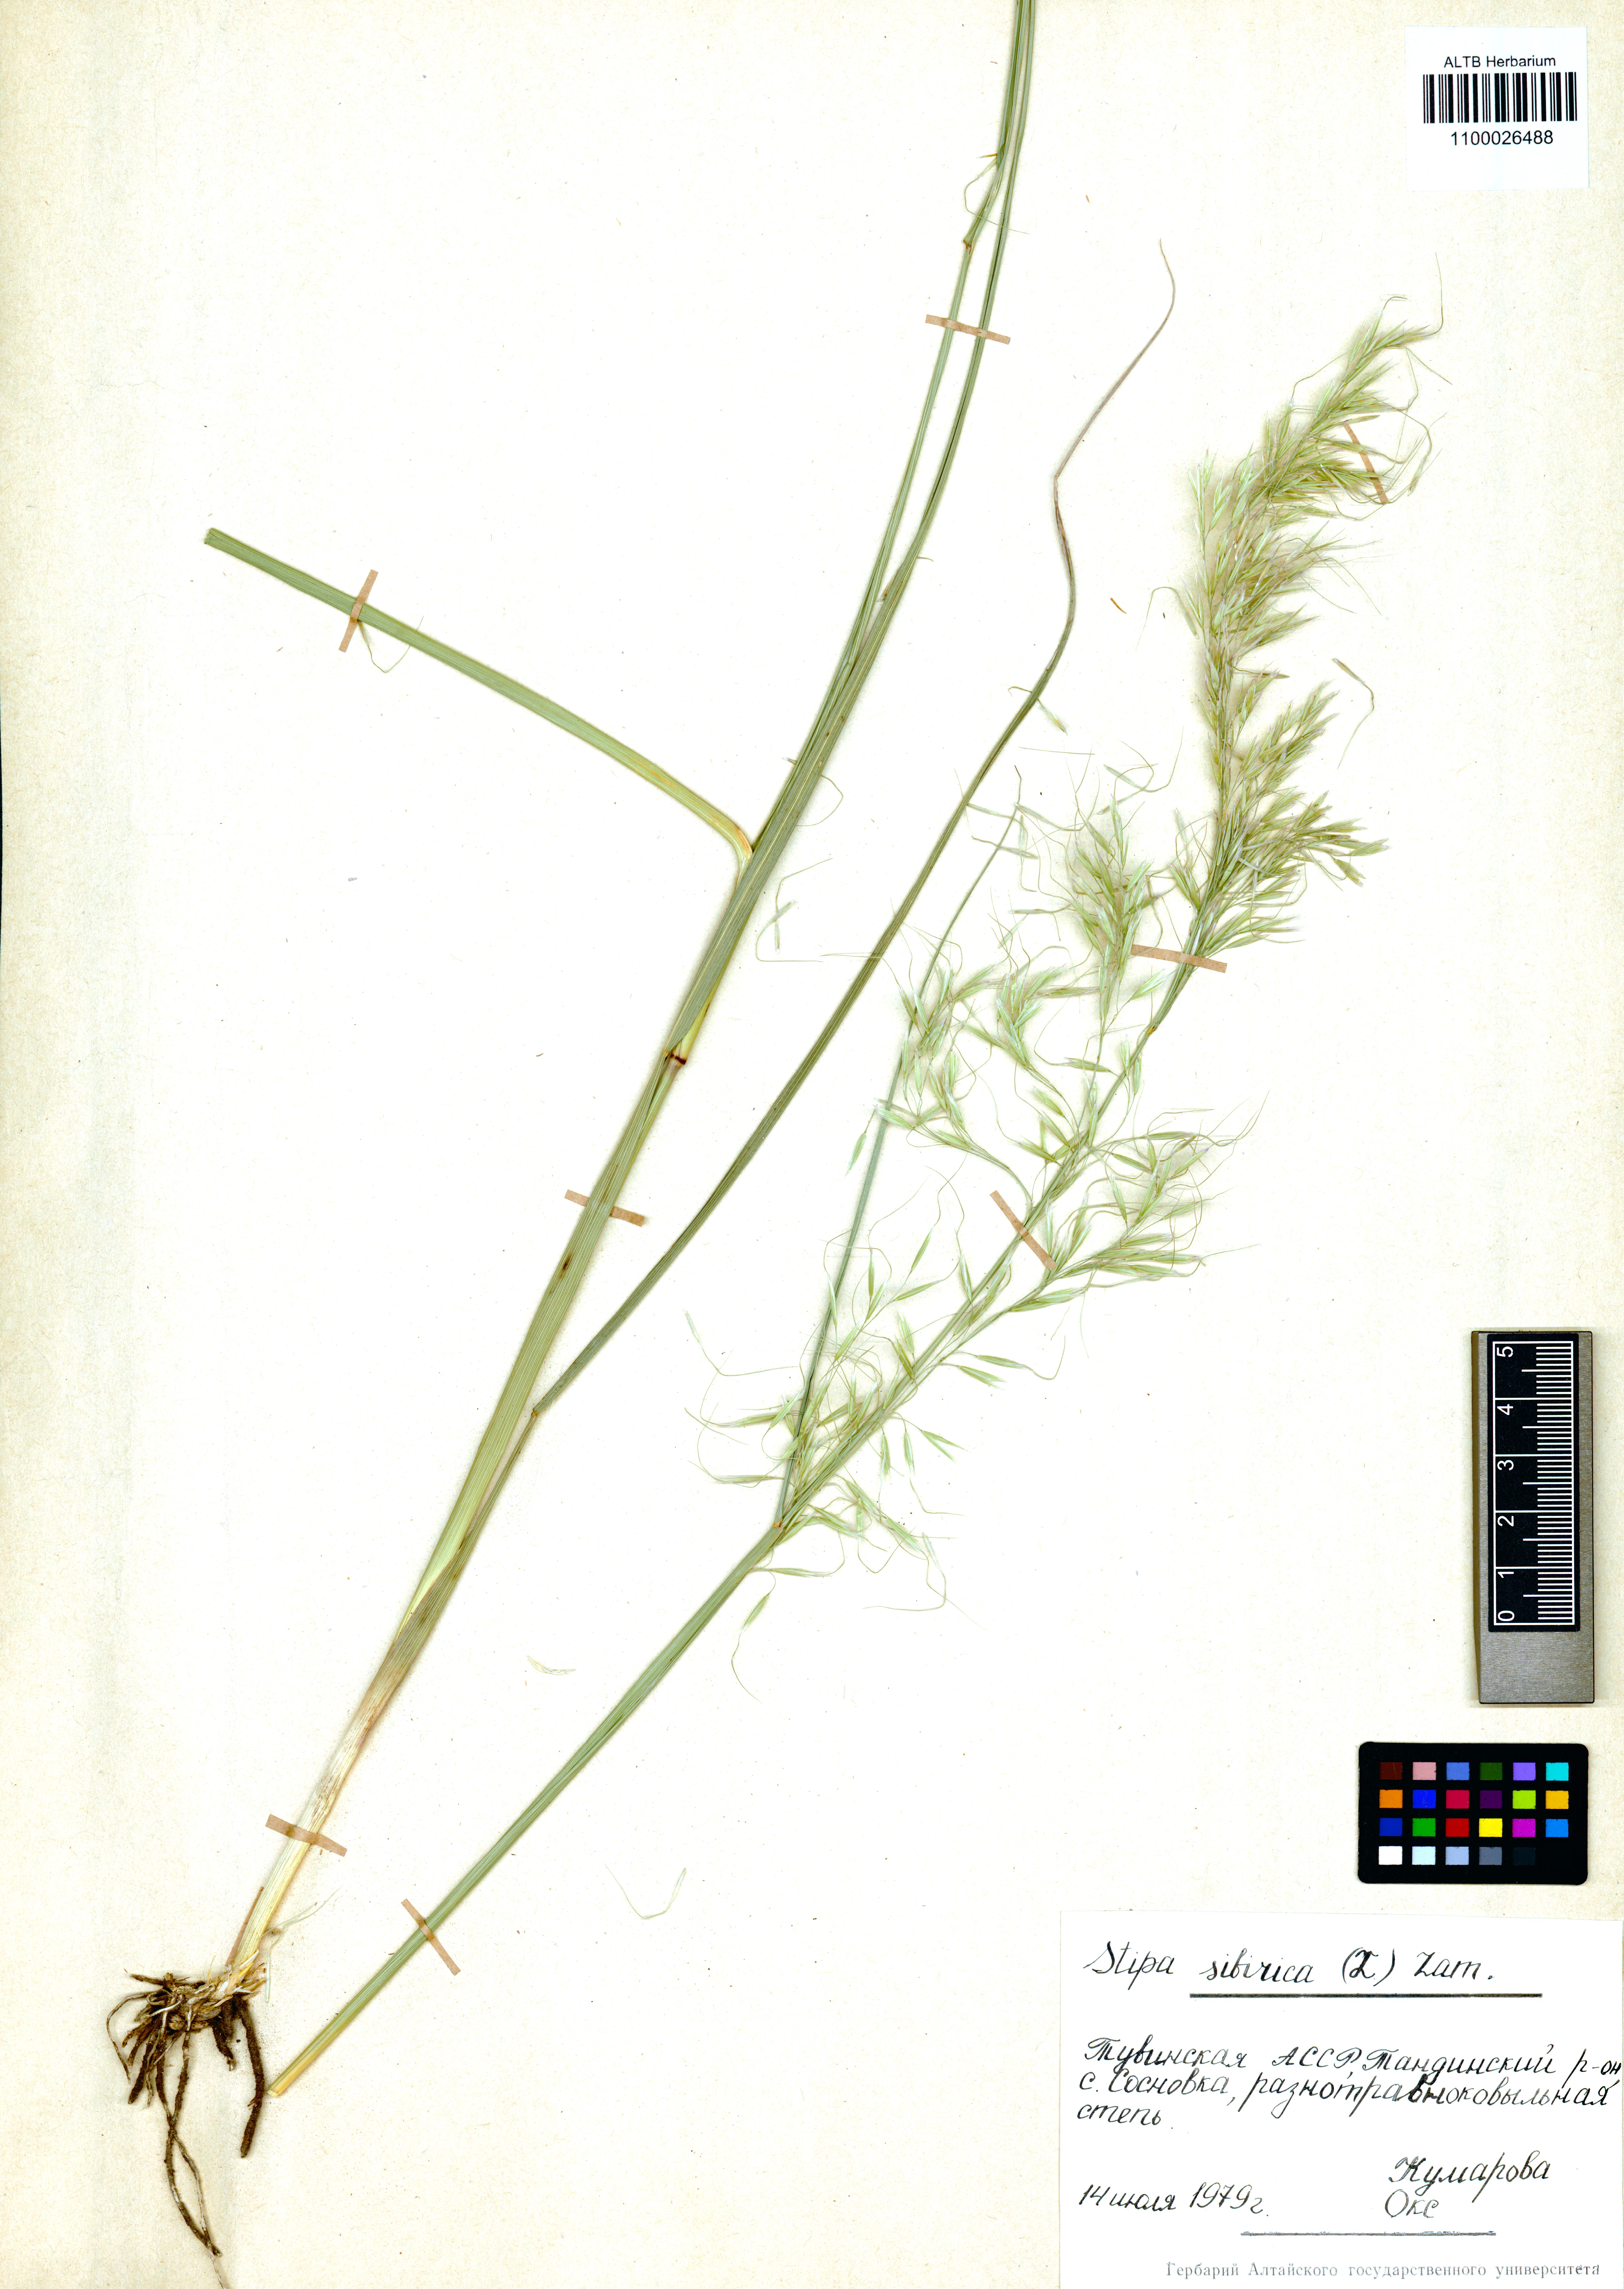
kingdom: Plantae
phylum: Tracheophyta
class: Liliopsida
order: Poales
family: Poaceae
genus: Achnatherum
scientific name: Achnatherum sibiricum
